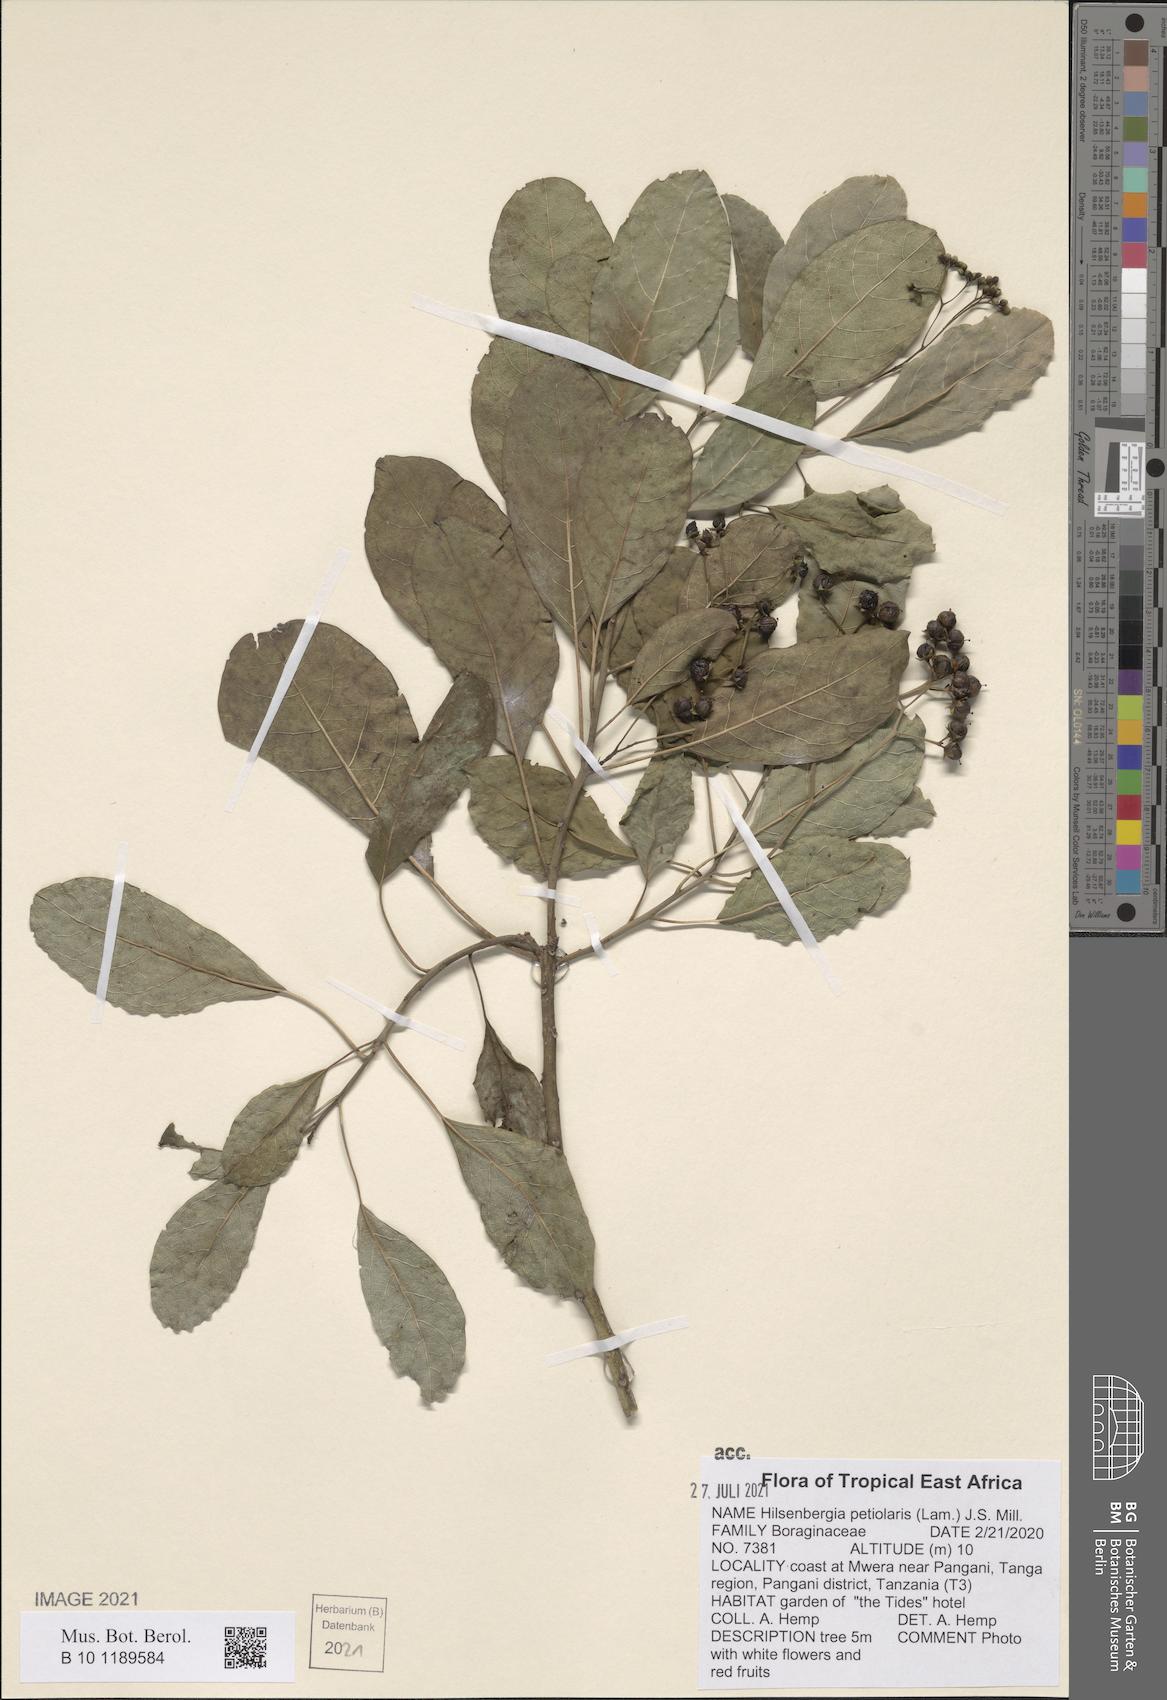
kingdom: Plantae
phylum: Tracheophyta
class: Magnoliopsida
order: Boraginales
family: Ehretiaceae
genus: Bourreria
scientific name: Bourreria petiolaris
